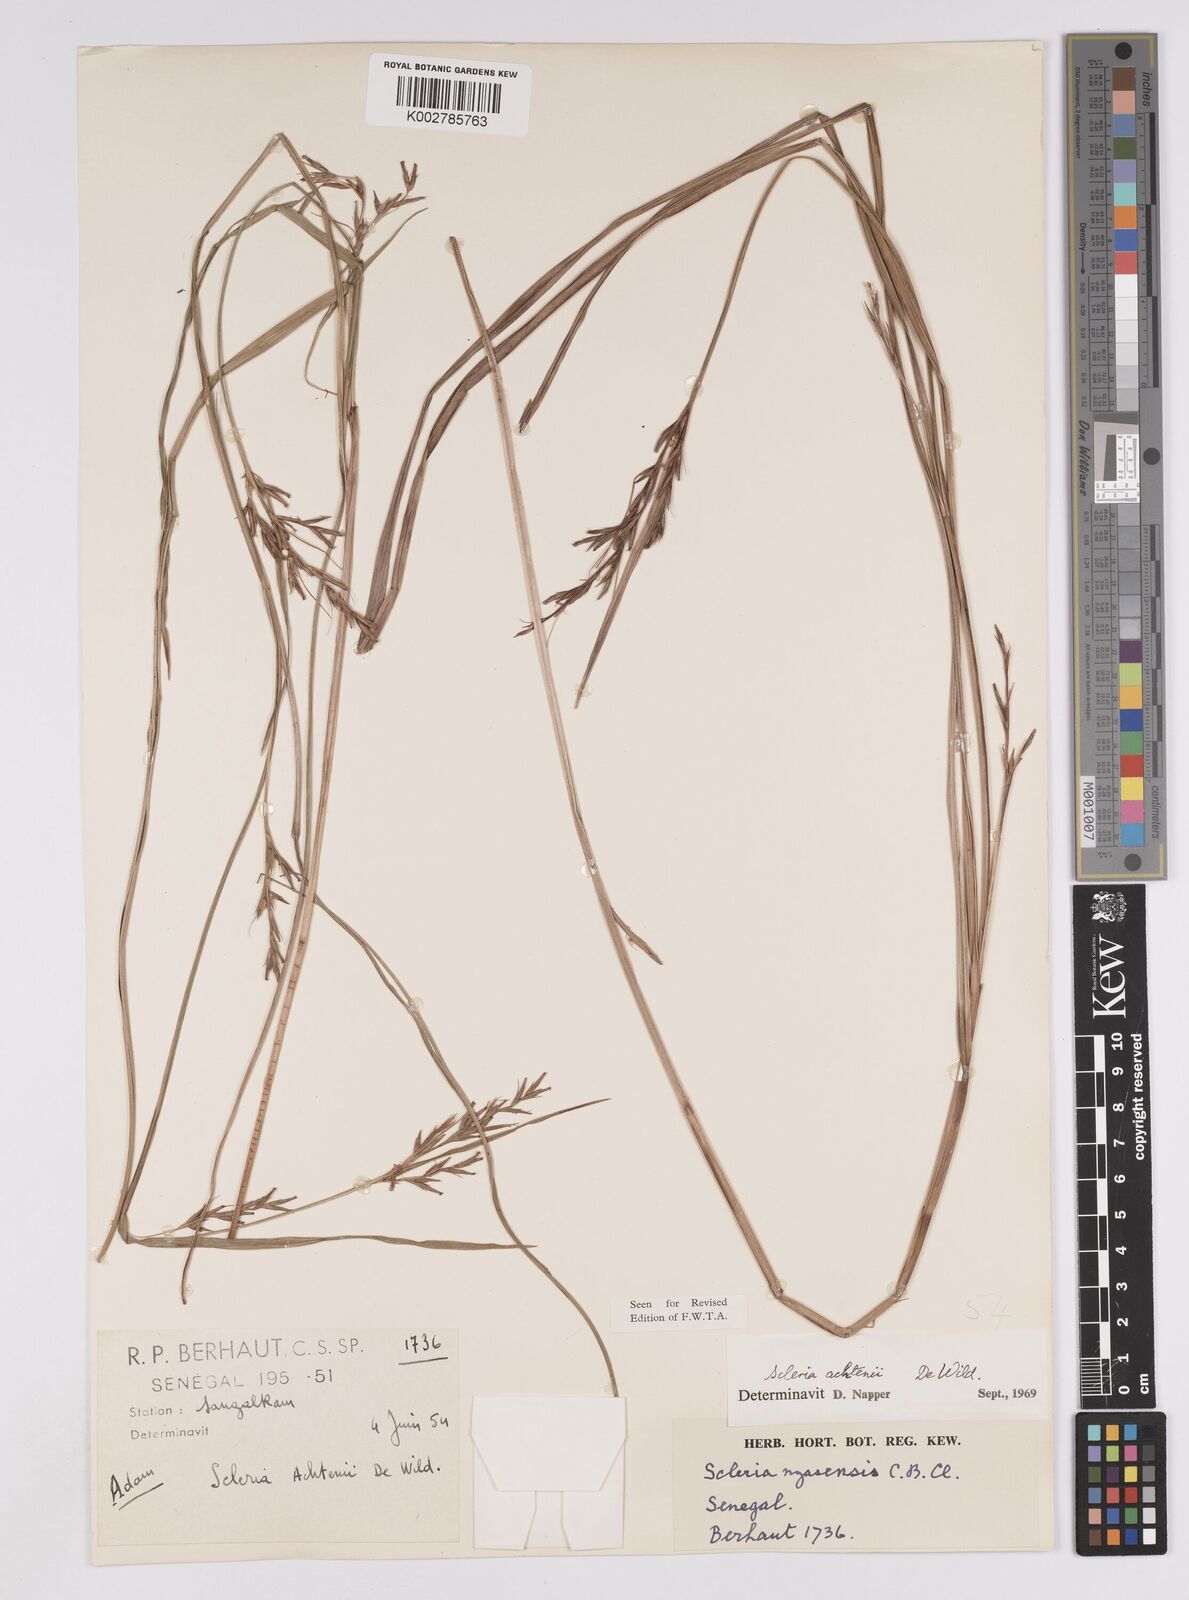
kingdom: Plantae
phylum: Tracheophyta
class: Liliopsida
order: Poales
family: Cyperaceae
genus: Scleria
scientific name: Scleria achtenii
